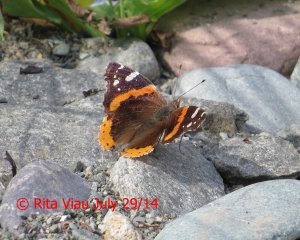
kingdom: Animalia
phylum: Arthropoda
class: Insecta
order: Lepidoptera
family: Nymphalidae
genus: Vanessa
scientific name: Vanessa atalanta
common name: Red Admiral
